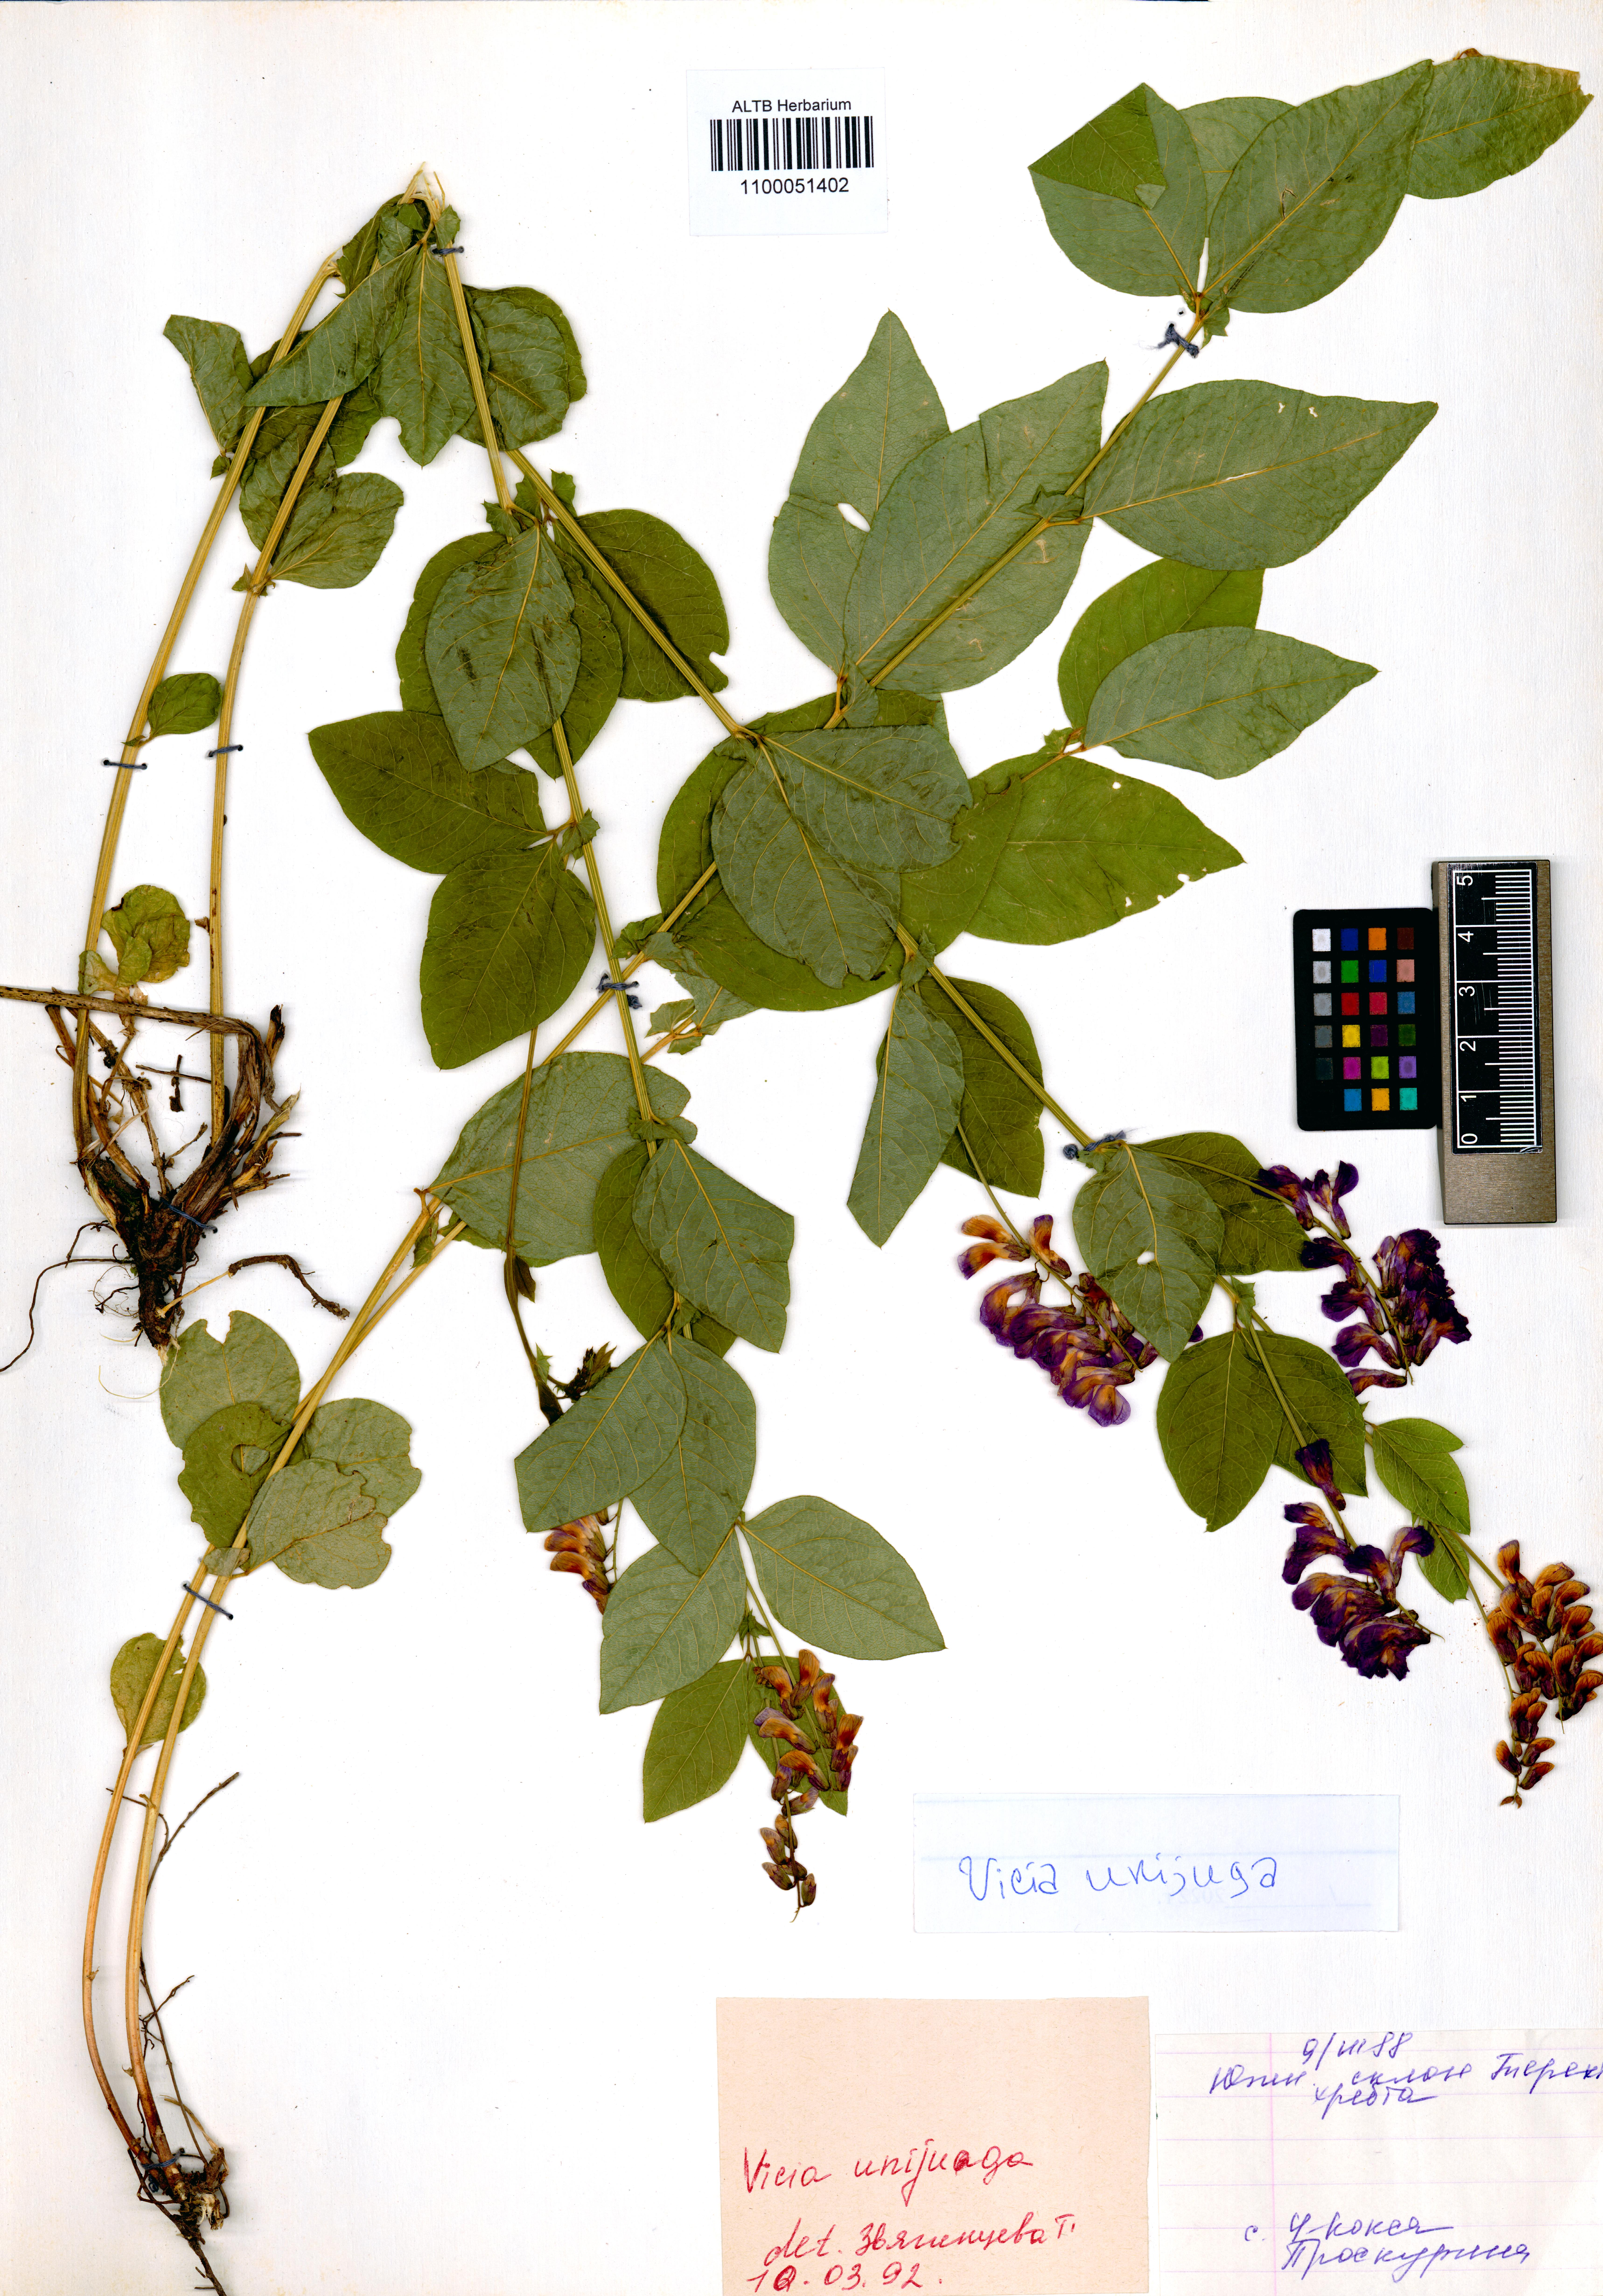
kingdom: Plantae
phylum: Tracheophyta
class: Magnoliopsida
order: Fabales
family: Fabaceae
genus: Vicia
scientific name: Vicia unijuga
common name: Two-leaf vetch
